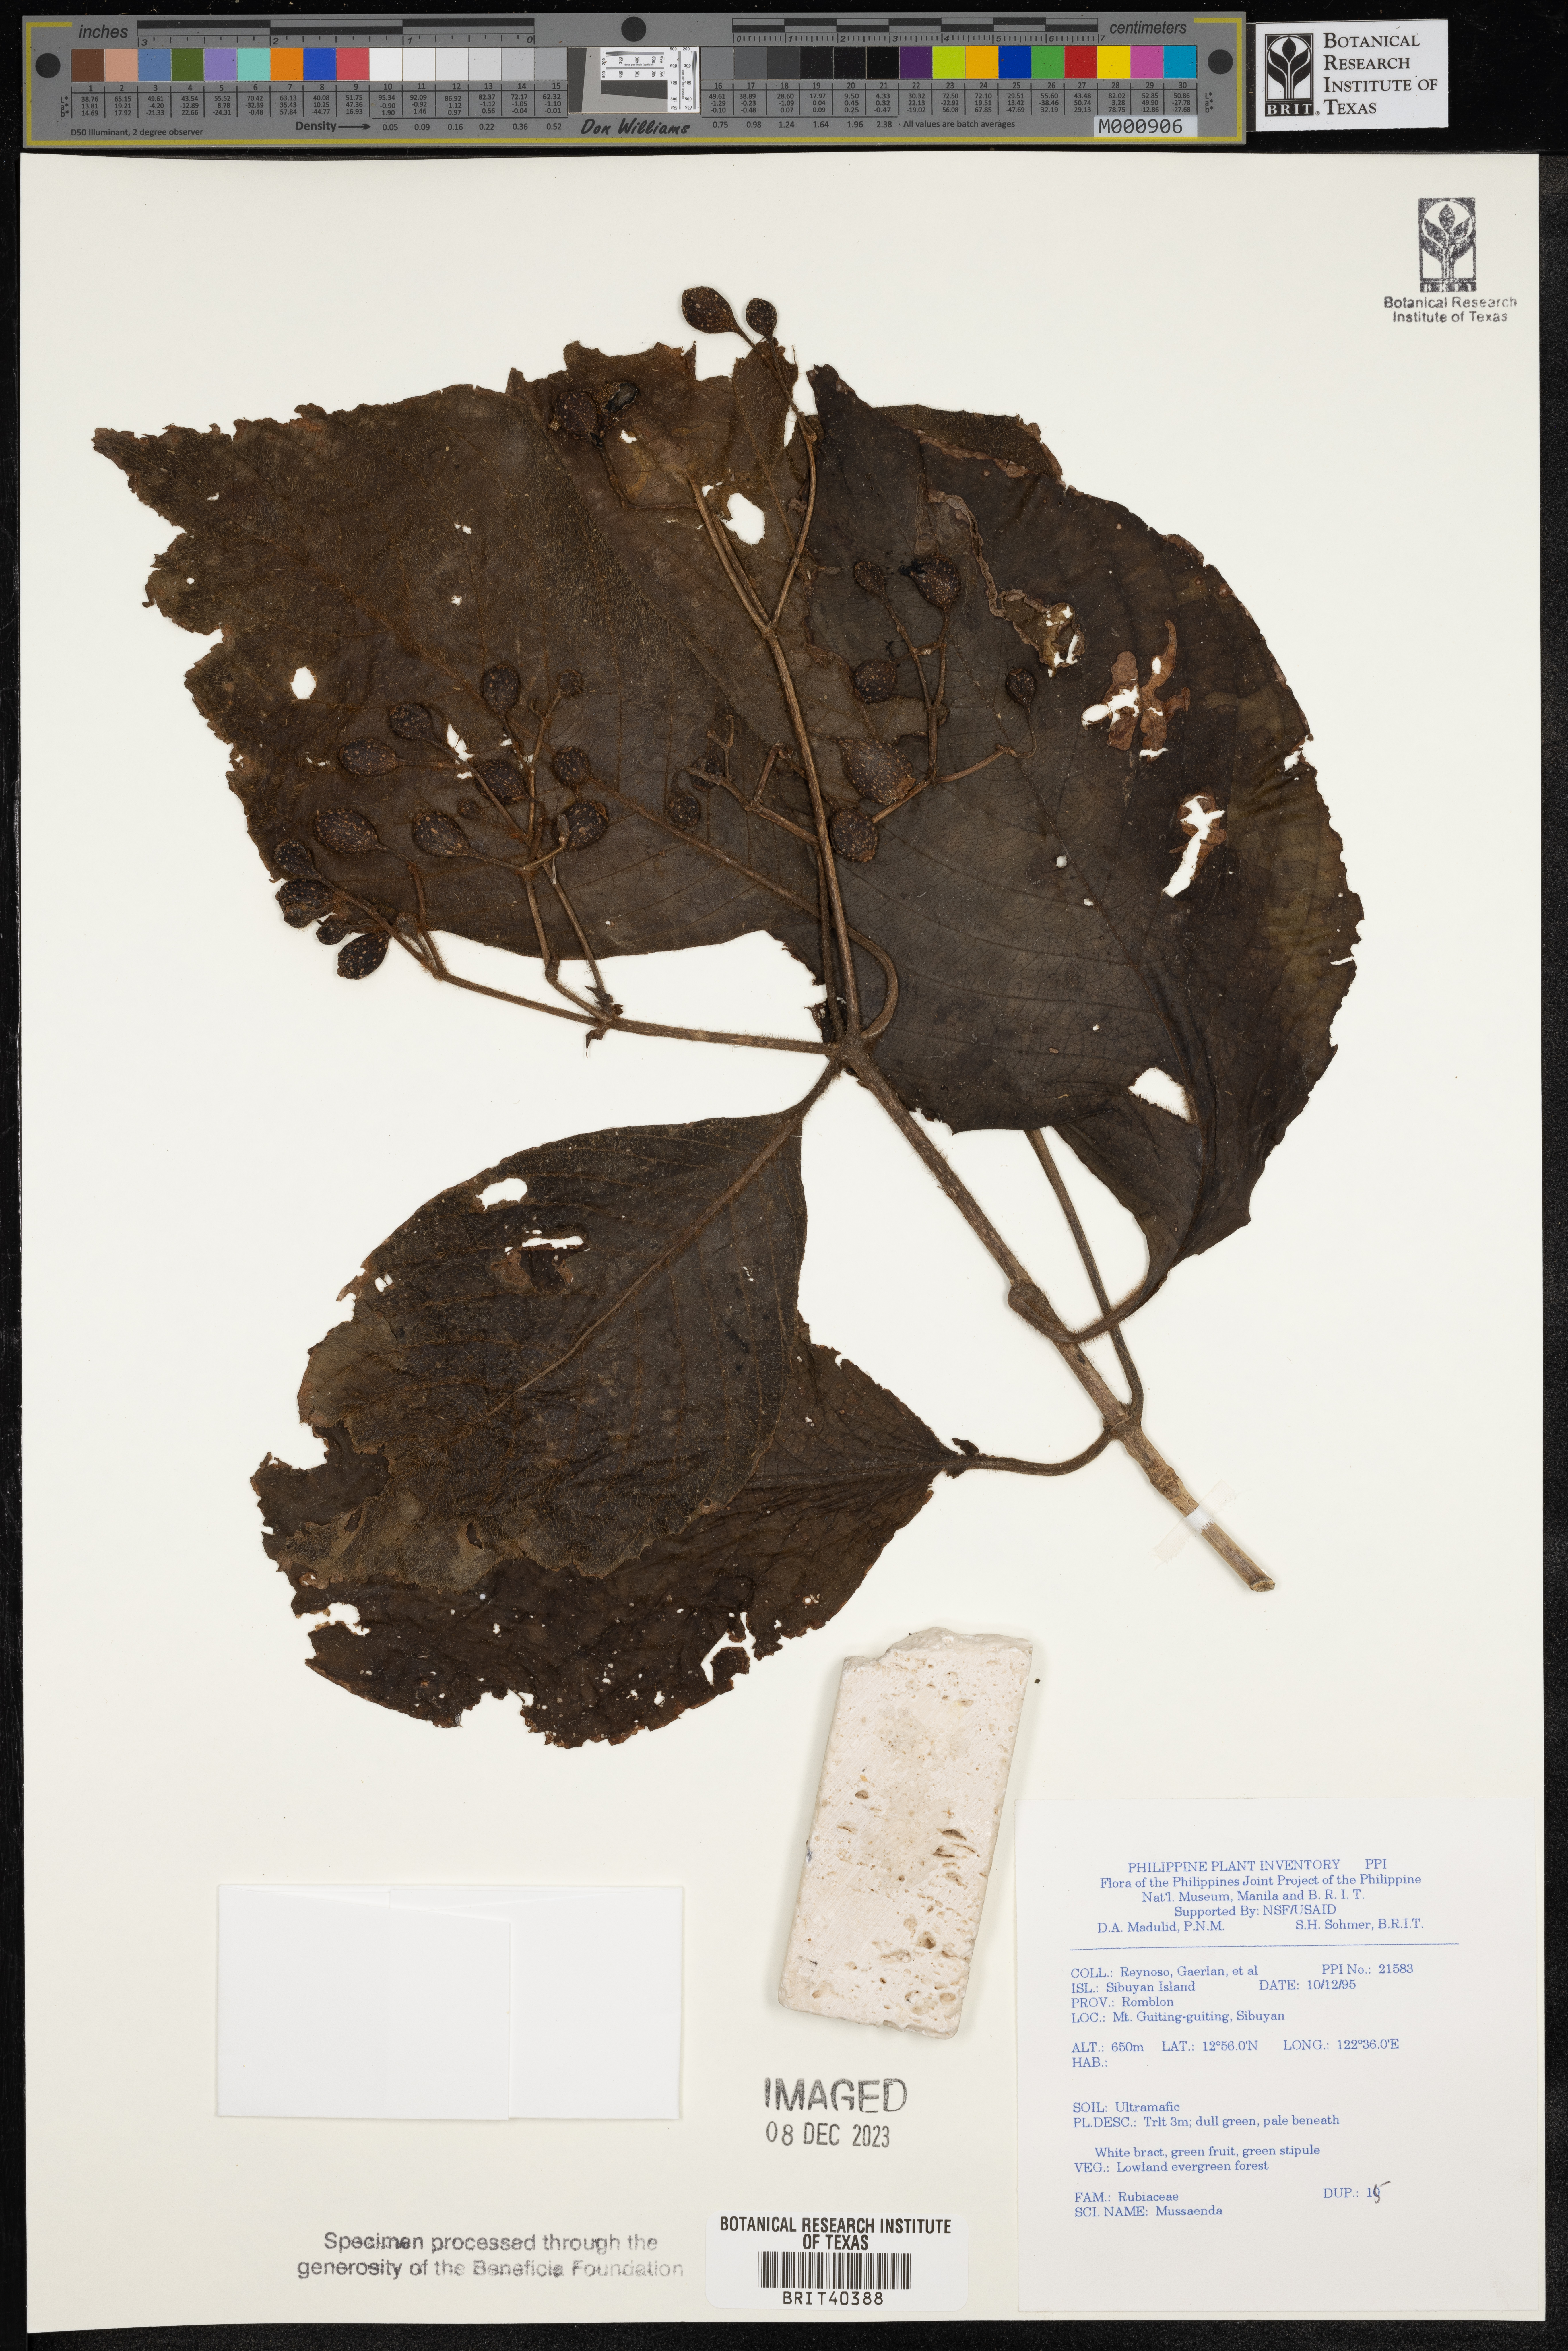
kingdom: Plantae
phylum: Tracheophyta
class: Magnoliopsida
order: Gentianales
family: Rubiaceae
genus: Mussaenda
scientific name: Mussaenda
